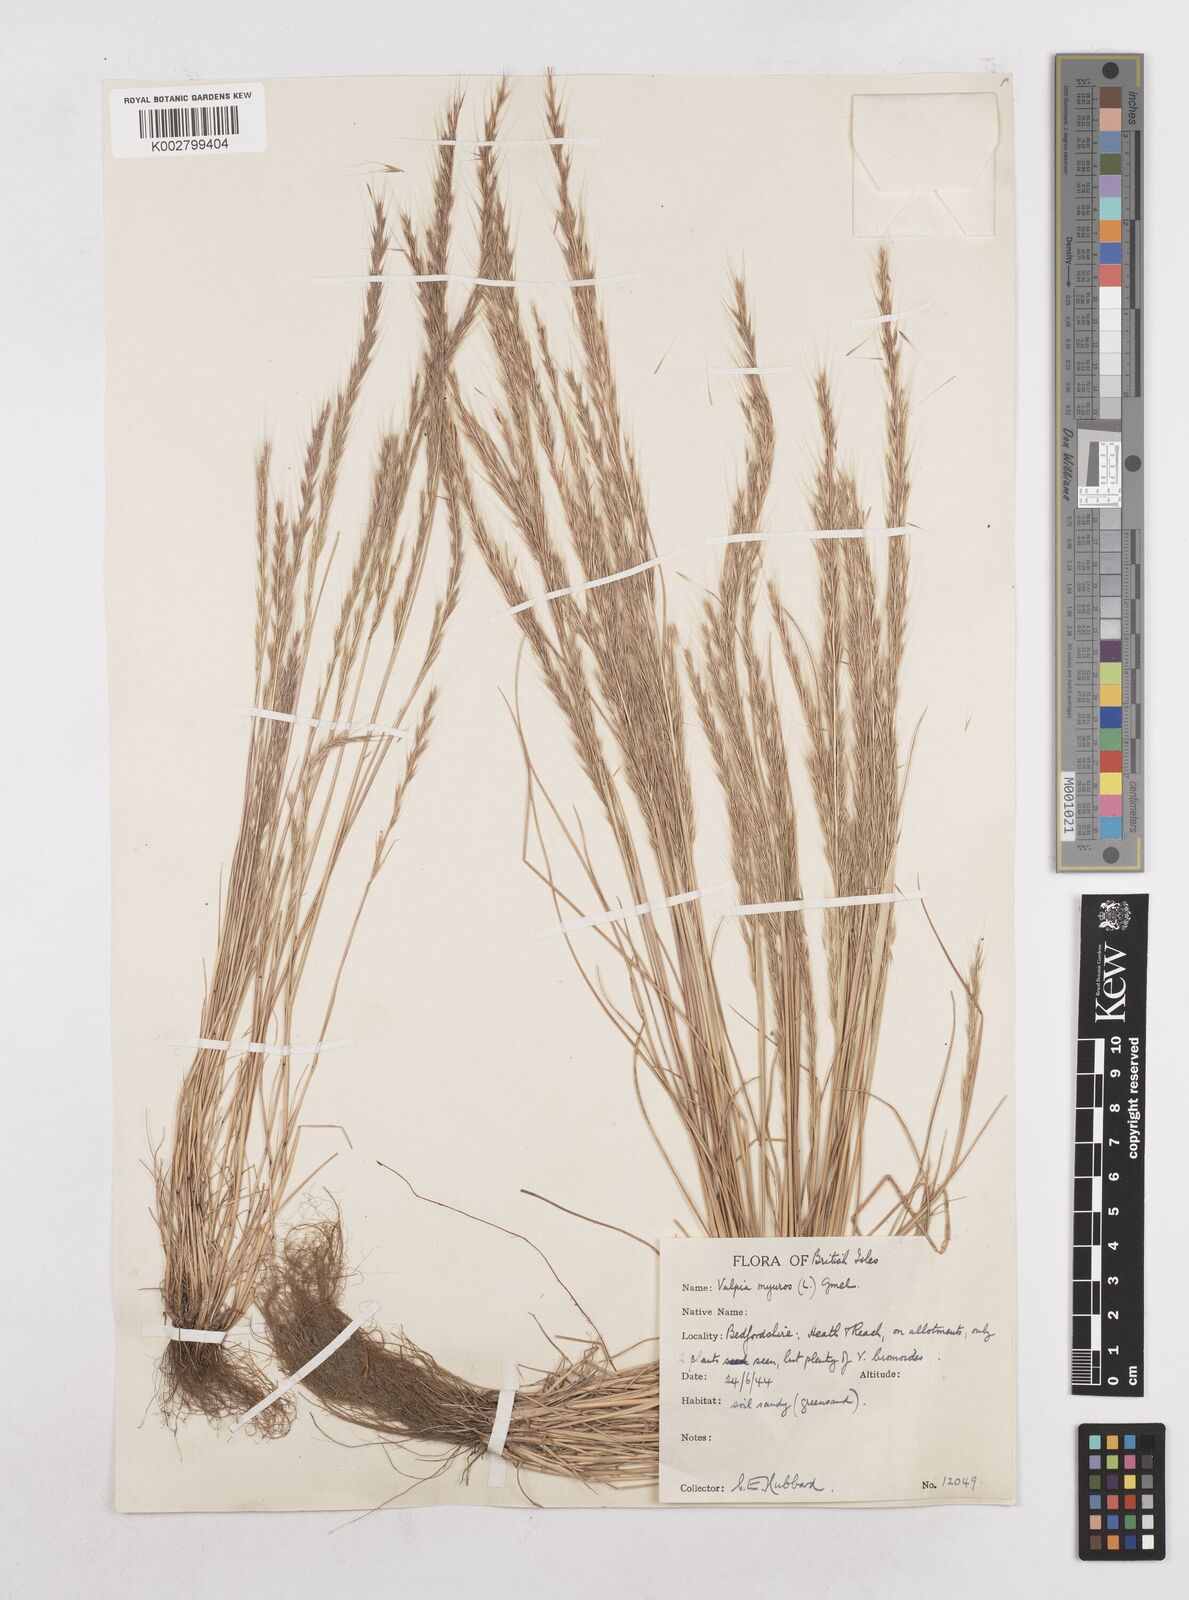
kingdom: Plantae
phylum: Tracheophyta
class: Liliopsida
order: Poales
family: Poaceae
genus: Festuca
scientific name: Festuca myuros
